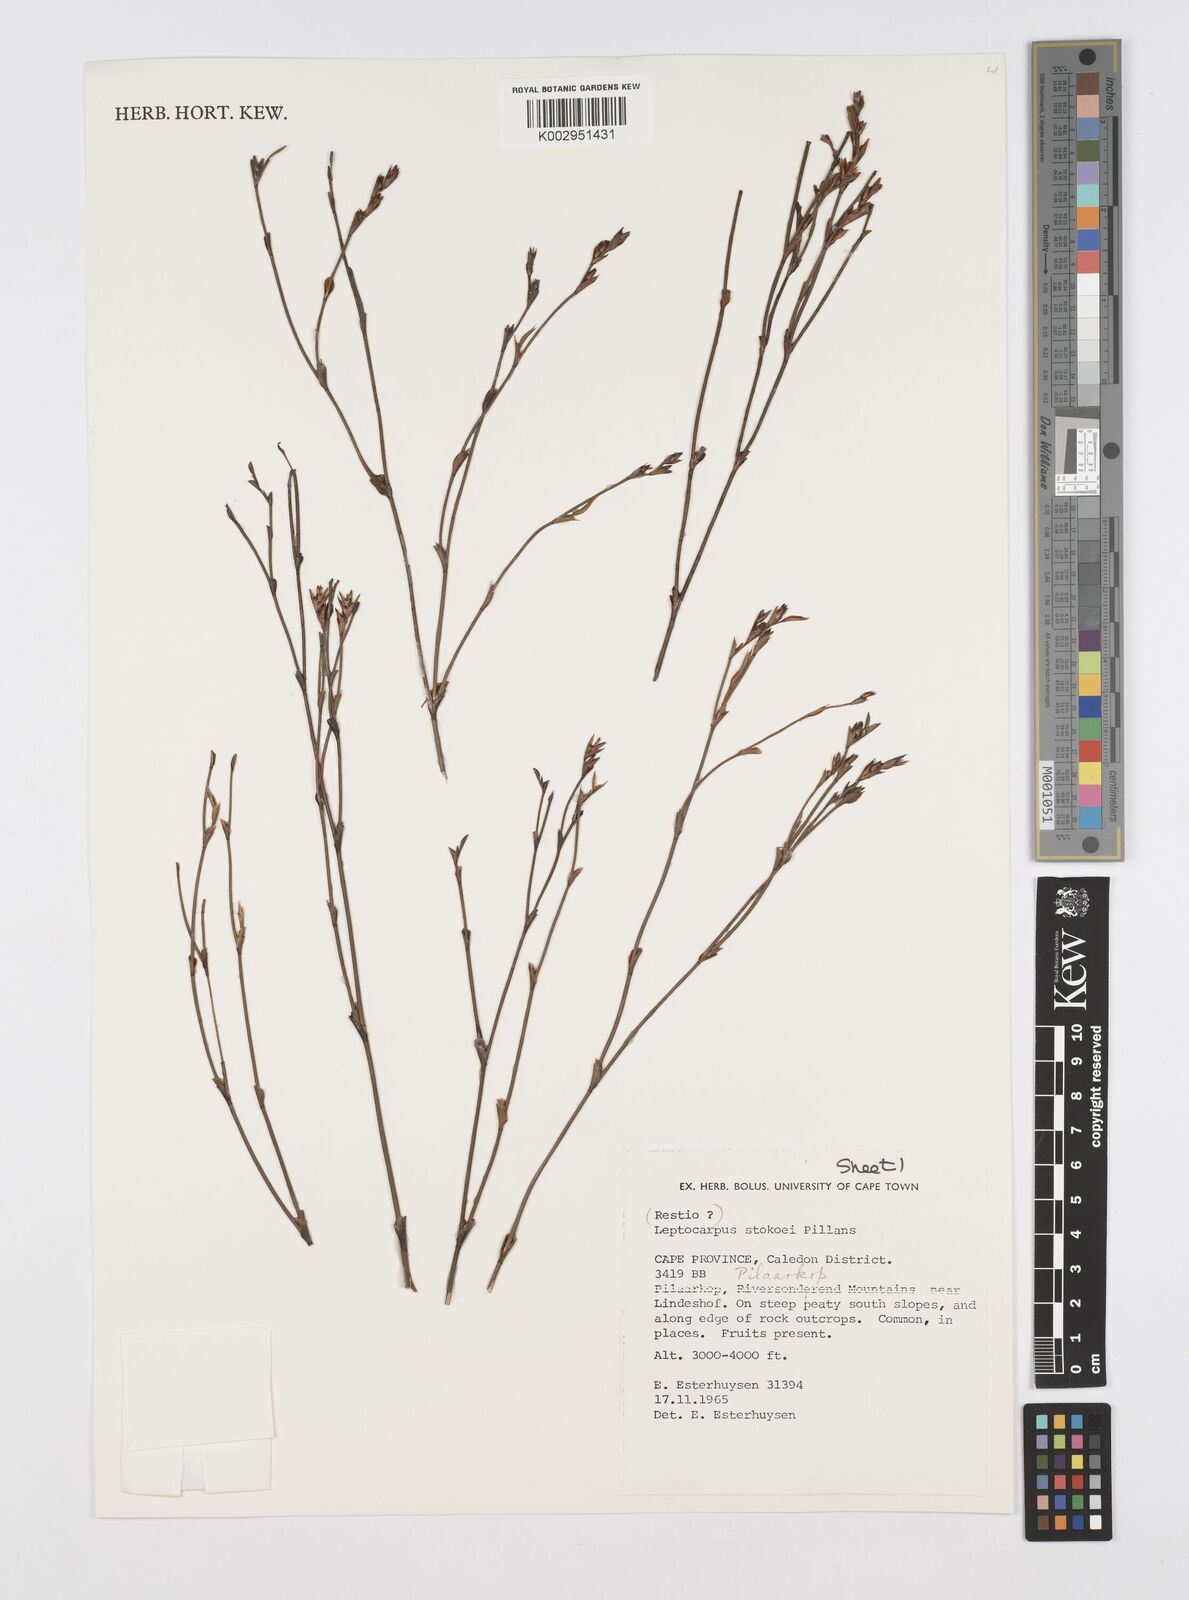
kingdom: Plantae
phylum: Tracheophyta
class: Liliopsida
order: Poales
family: Restionaceae
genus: Restio
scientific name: Restio pillansii
